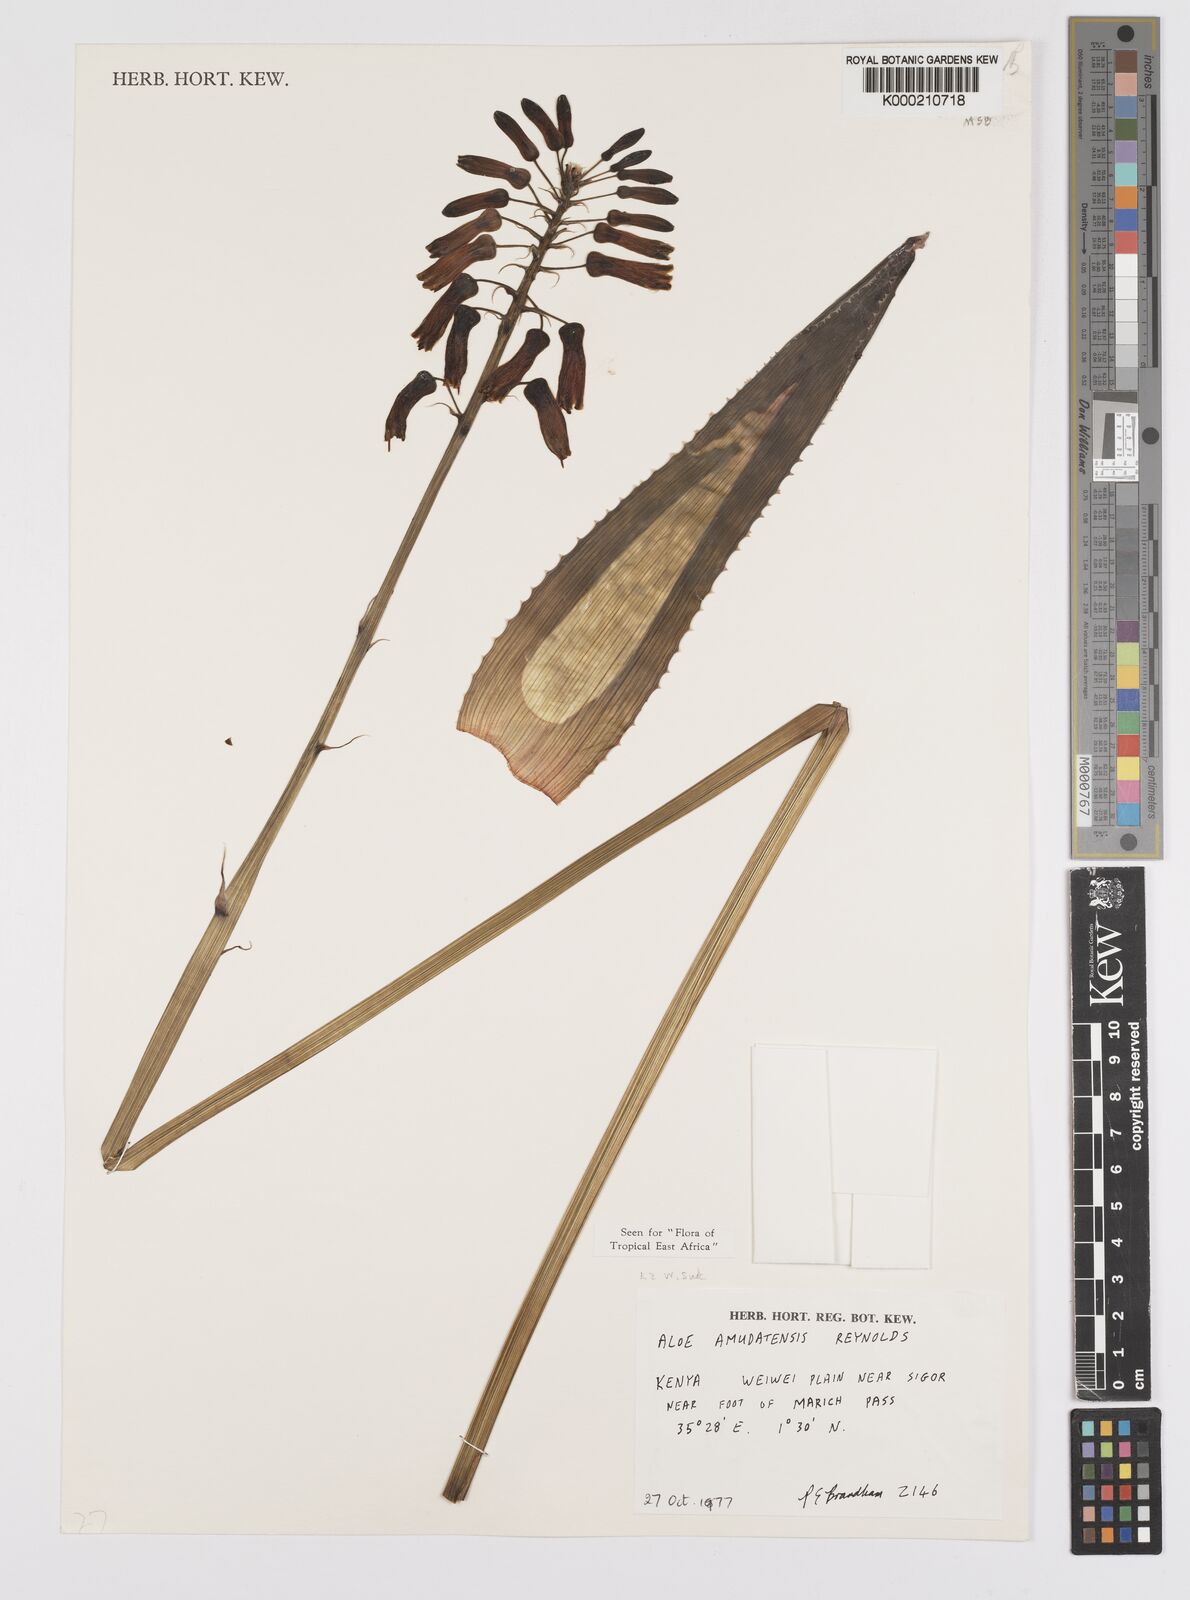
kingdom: Plantae
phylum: Tracheophyta
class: Liliopsida
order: Asparagales
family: Asphodelaceae
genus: Aloe
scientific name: Aloe amudatensis
